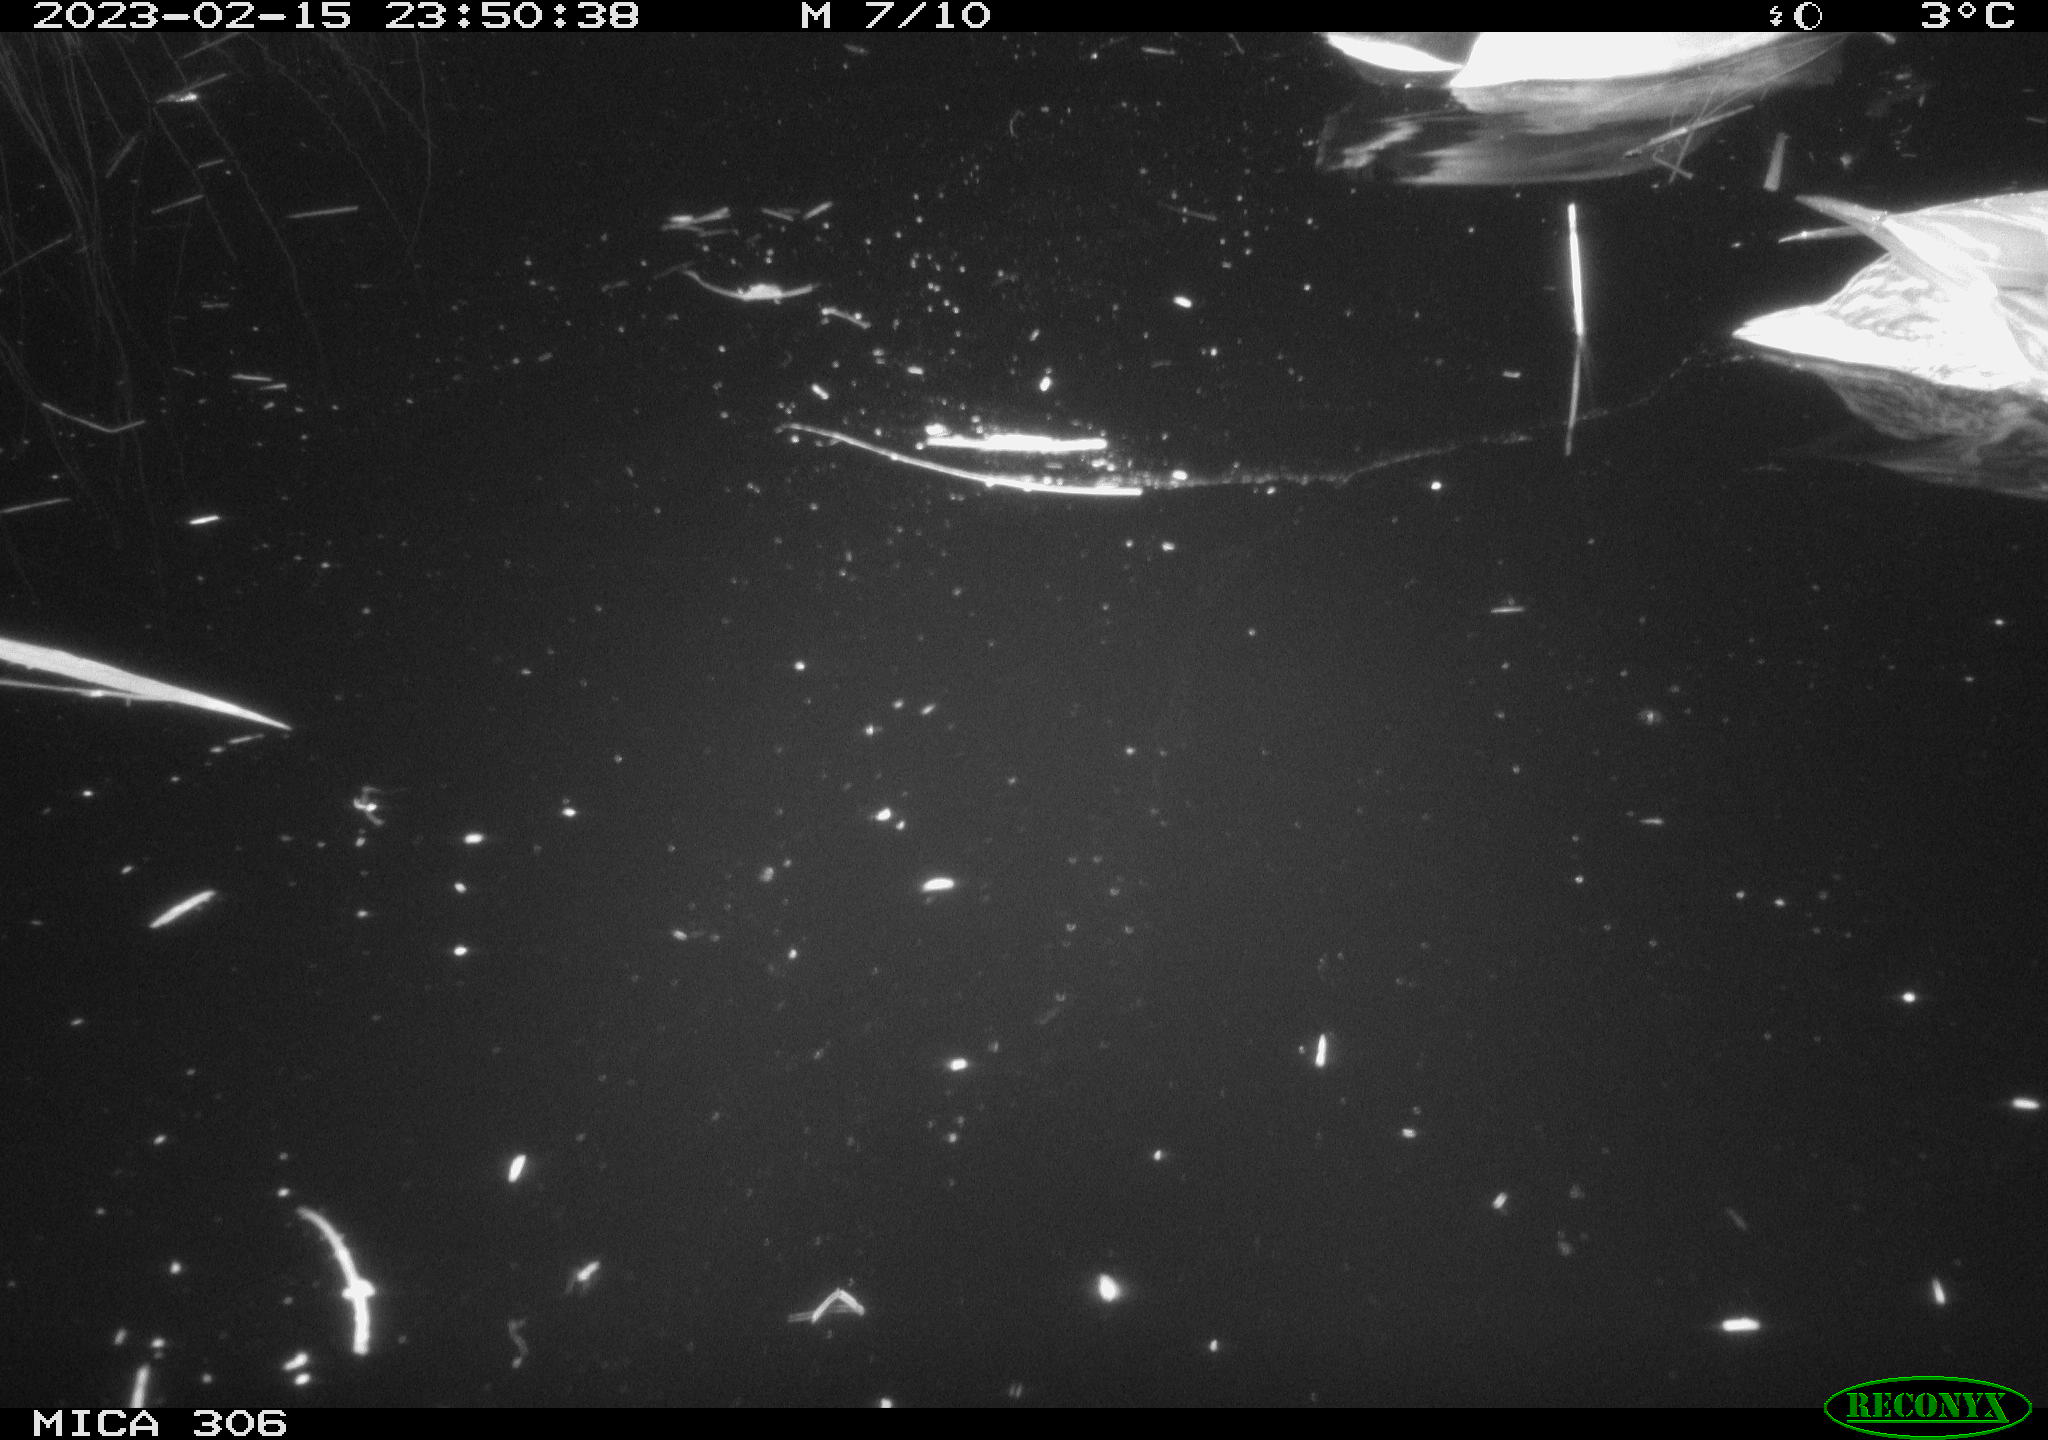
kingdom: Animalia
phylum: Chordata
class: Aves
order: Anseriformes
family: Anatidae
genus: Anas
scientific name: Anas
